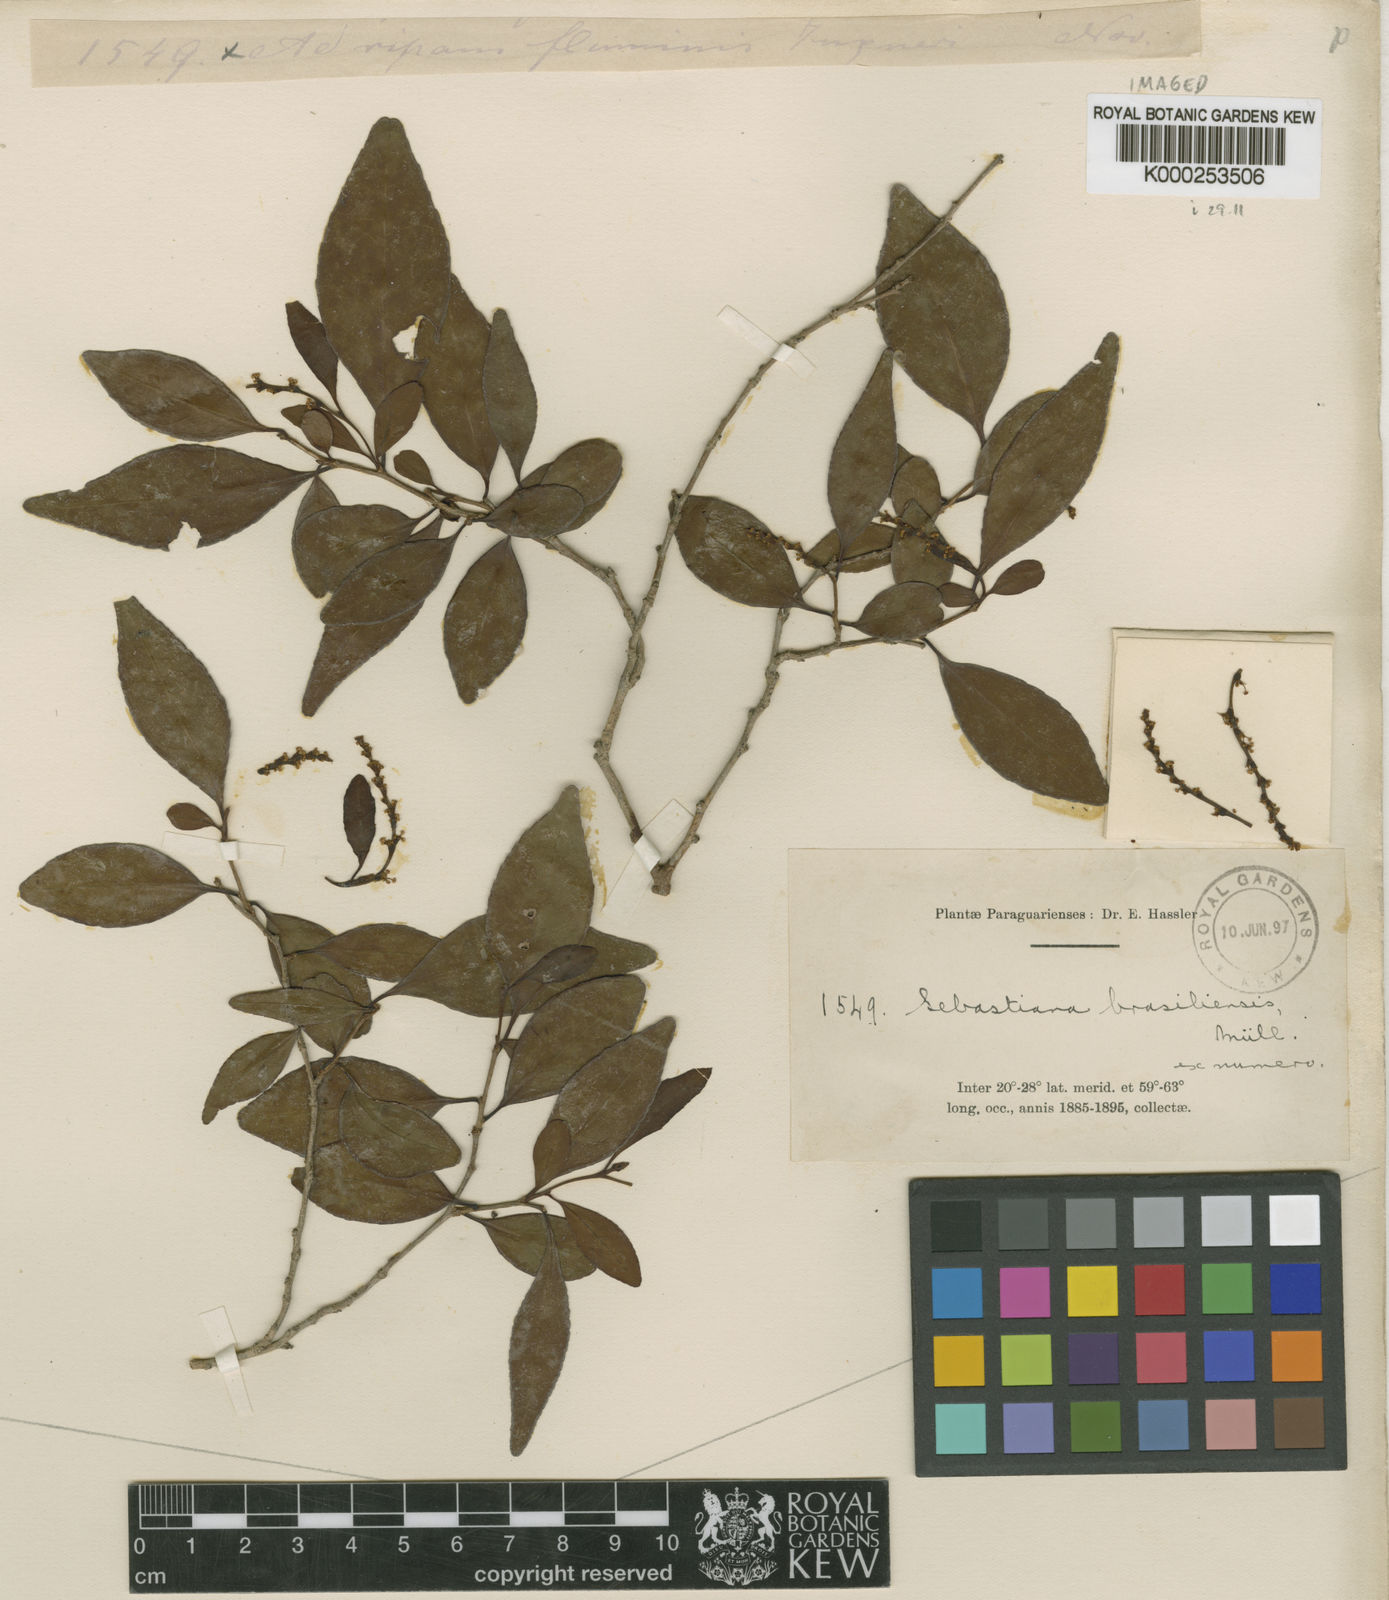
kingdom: Plantae
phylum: Tracheophyta
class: Magnoliopsida
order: Malpighiales
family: Euphorbiaceae
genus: Sebastiania
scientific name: Sebastiania
